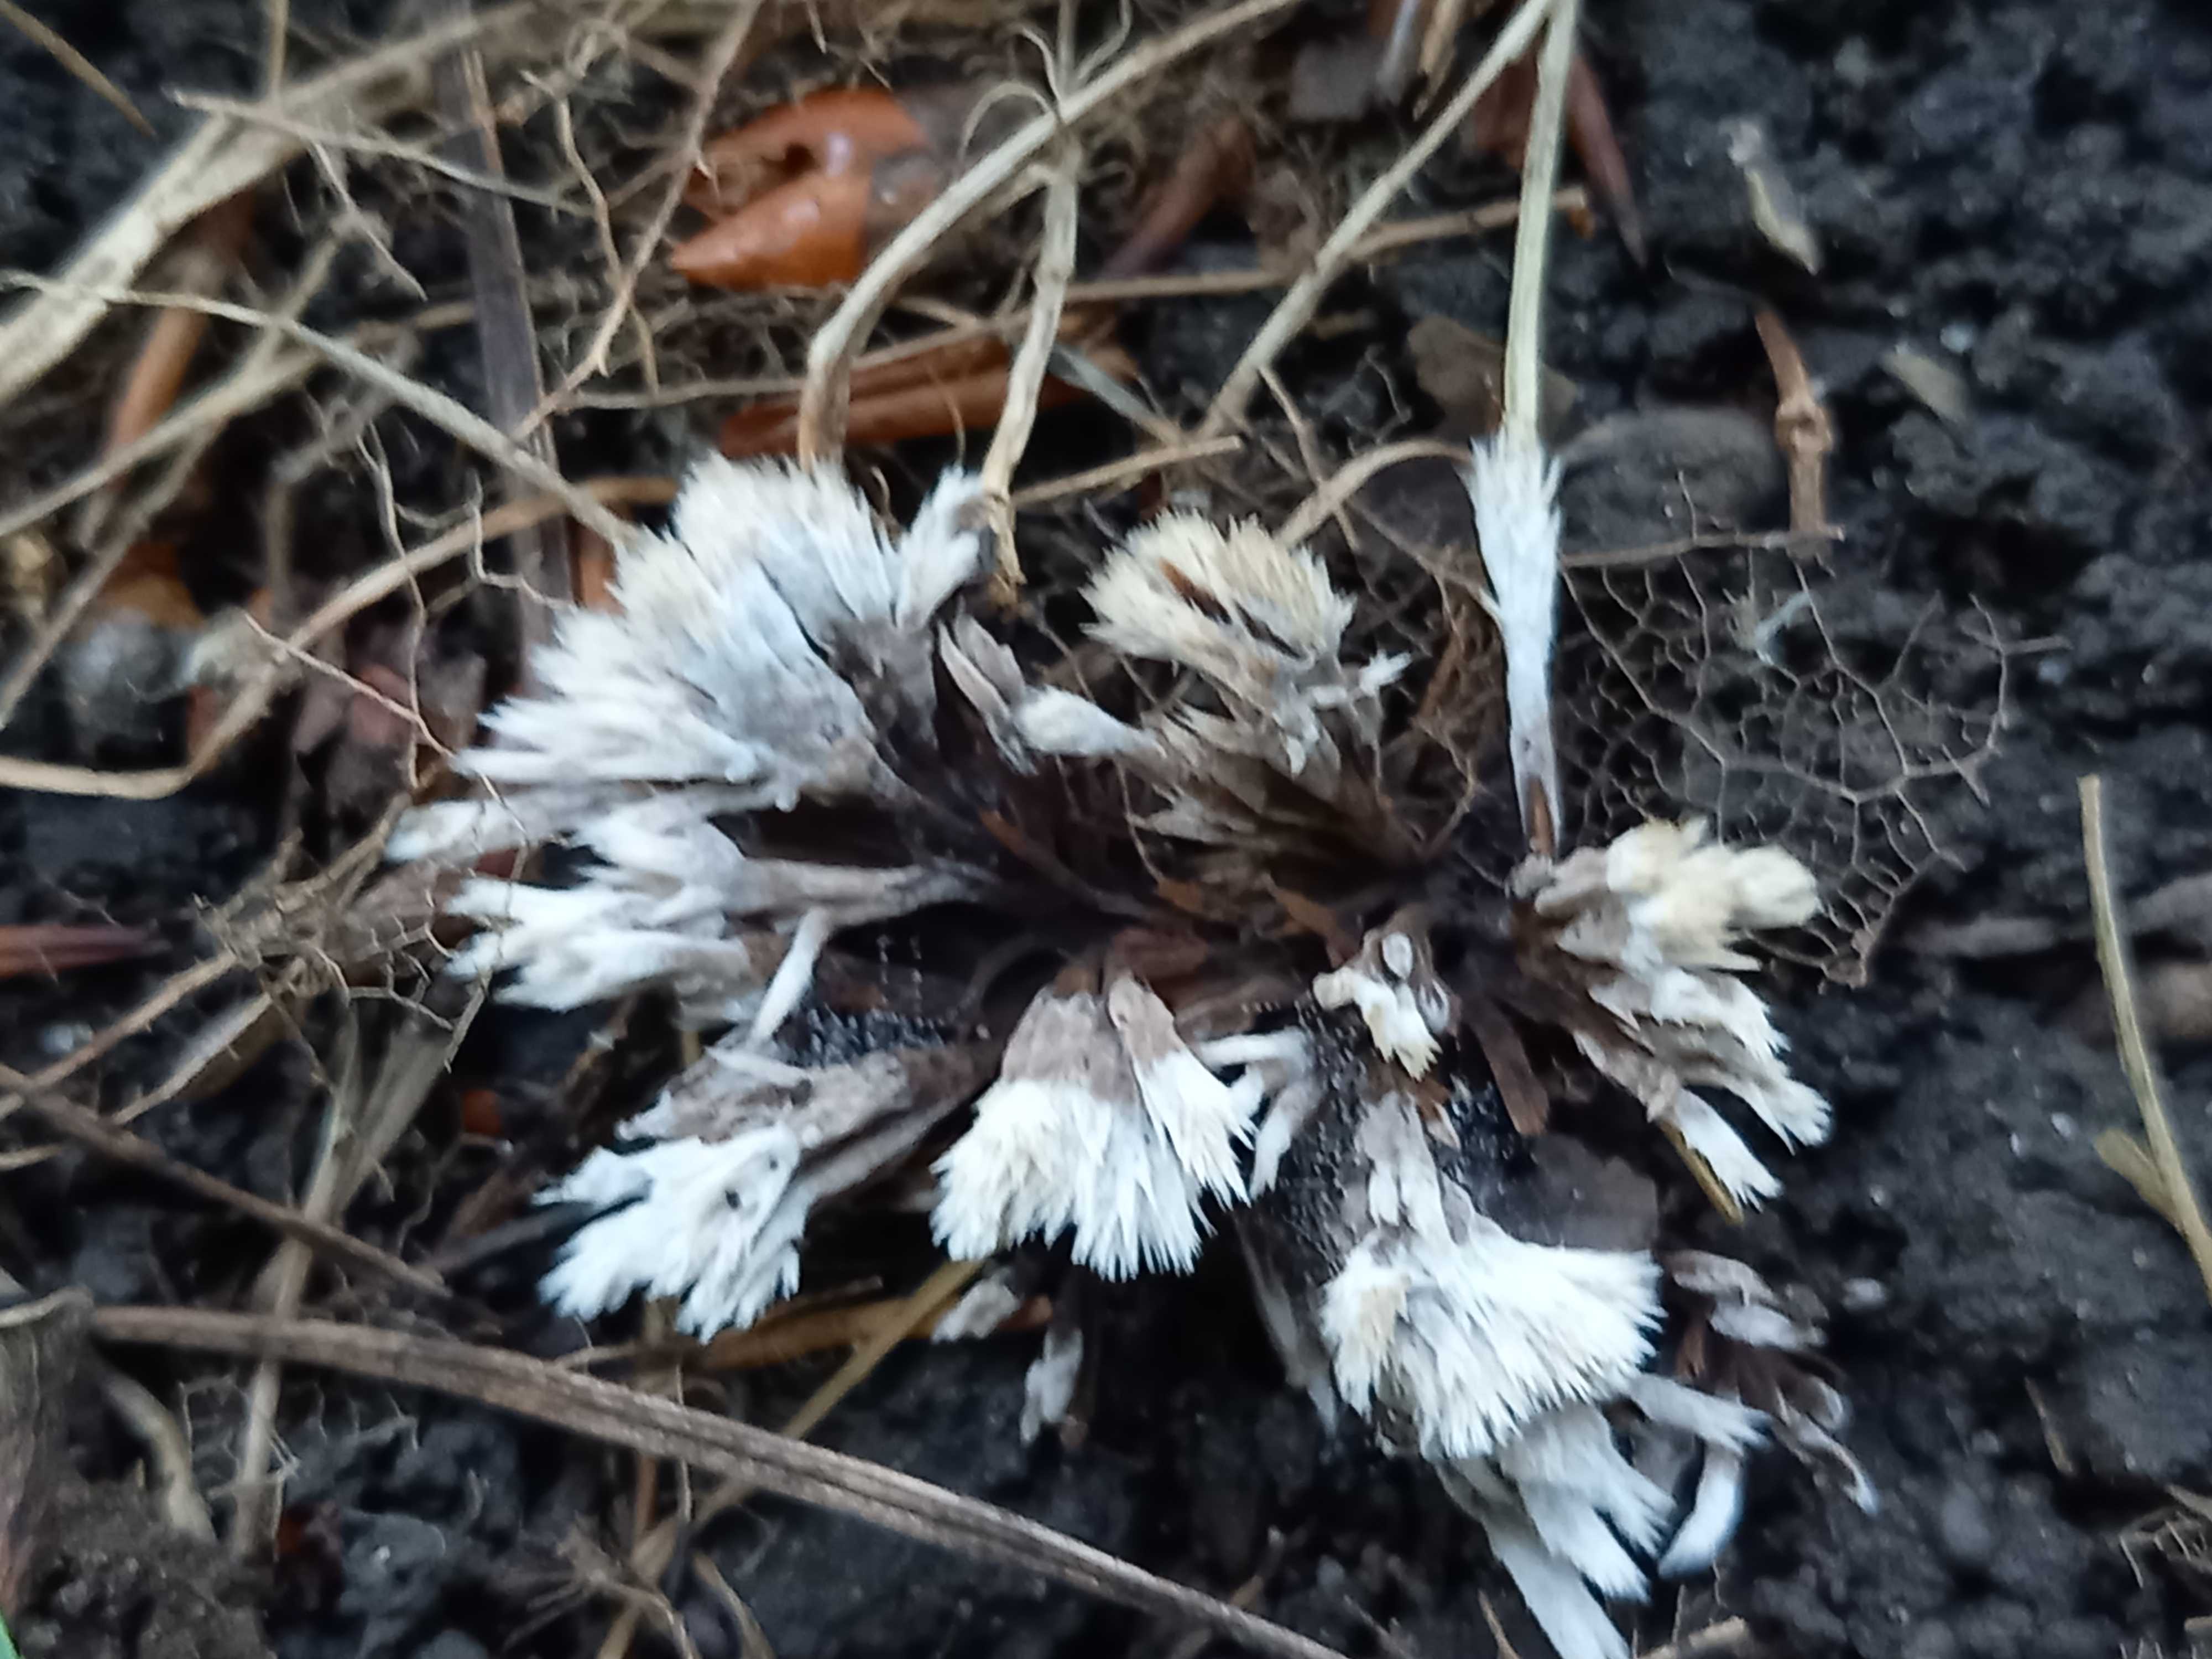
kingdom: Fungi
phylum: Basidiomycota
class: Agaricomycetes
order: Thelephorales
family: Thelephoraceae
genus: Thelephora
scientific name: Thelephora penicillata
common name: fladtrådt frynsesvamp
